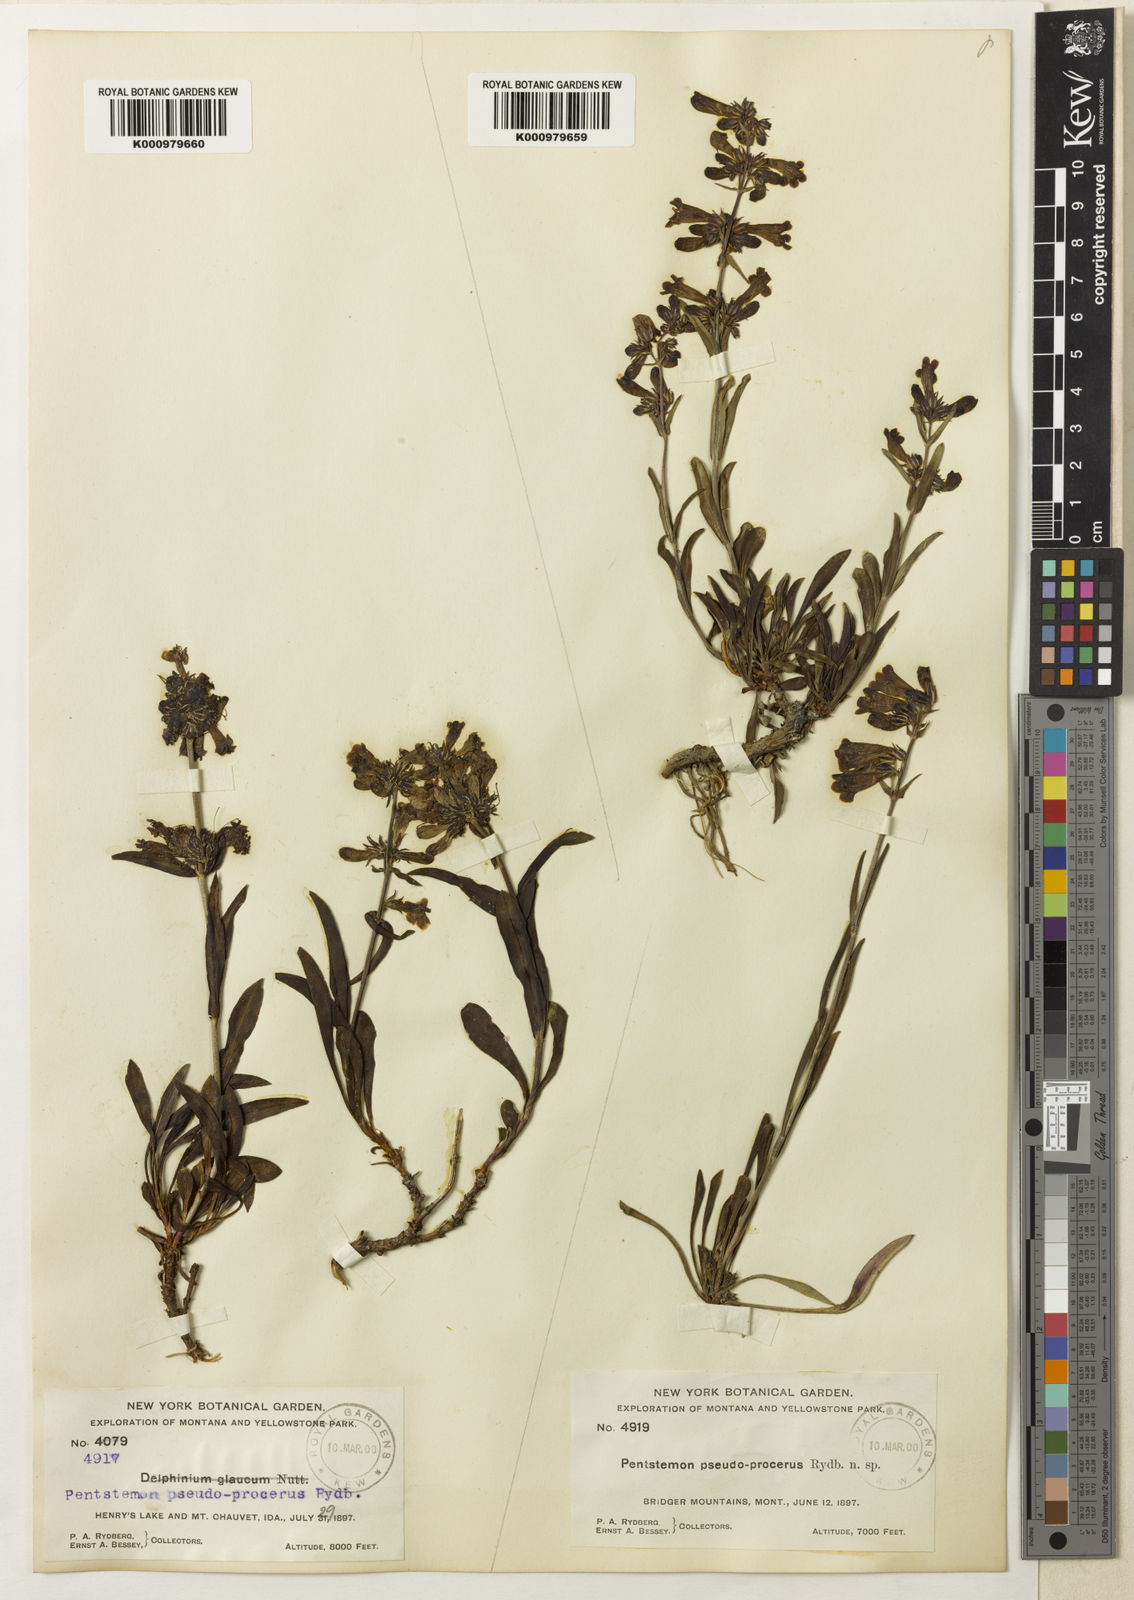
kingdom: Plantae
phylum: Tracheophyta
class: Magnoliopsida
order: Lamiales
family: Plantaginaceae
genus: Penstemon
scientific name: Penstemon attenuatus
